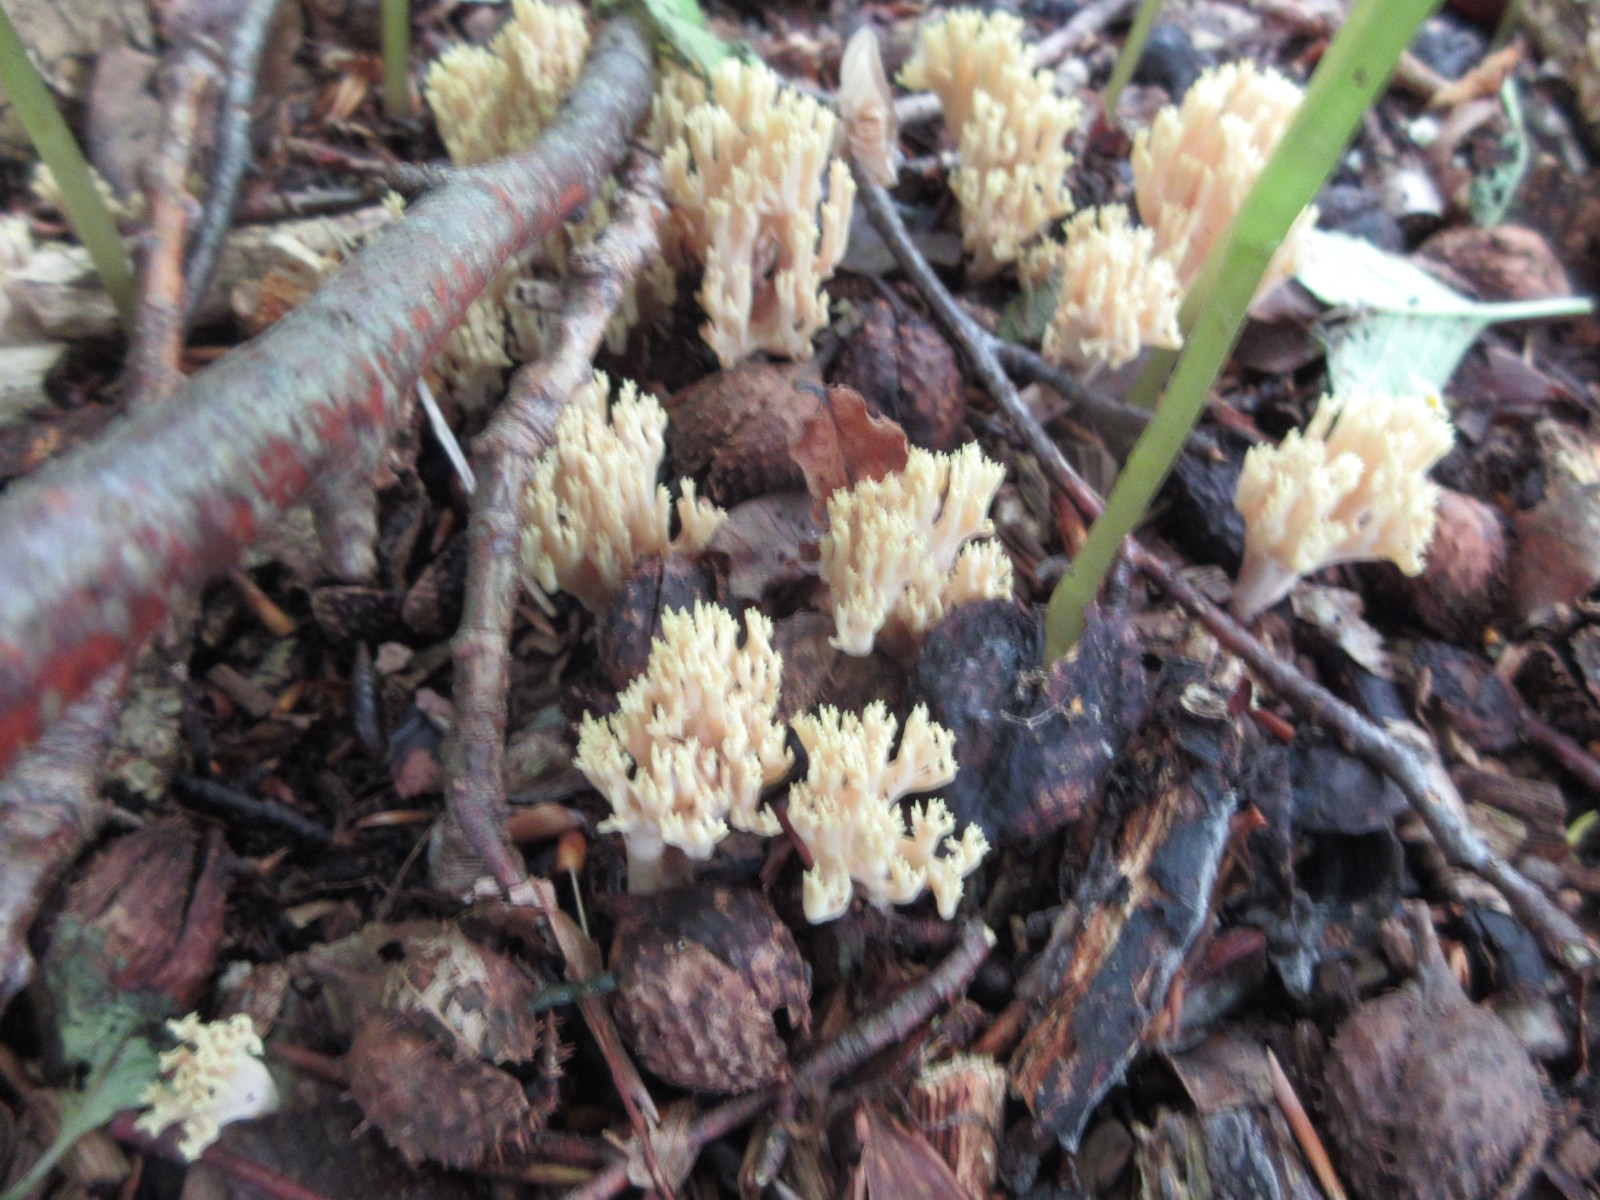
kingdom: Fungi
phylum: Basidiomycota
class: Agaricomycetes
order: Gomphales
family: Gomphaceae
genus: Ramaria
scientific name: Ramaria stricta
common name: rank koralsvamp
